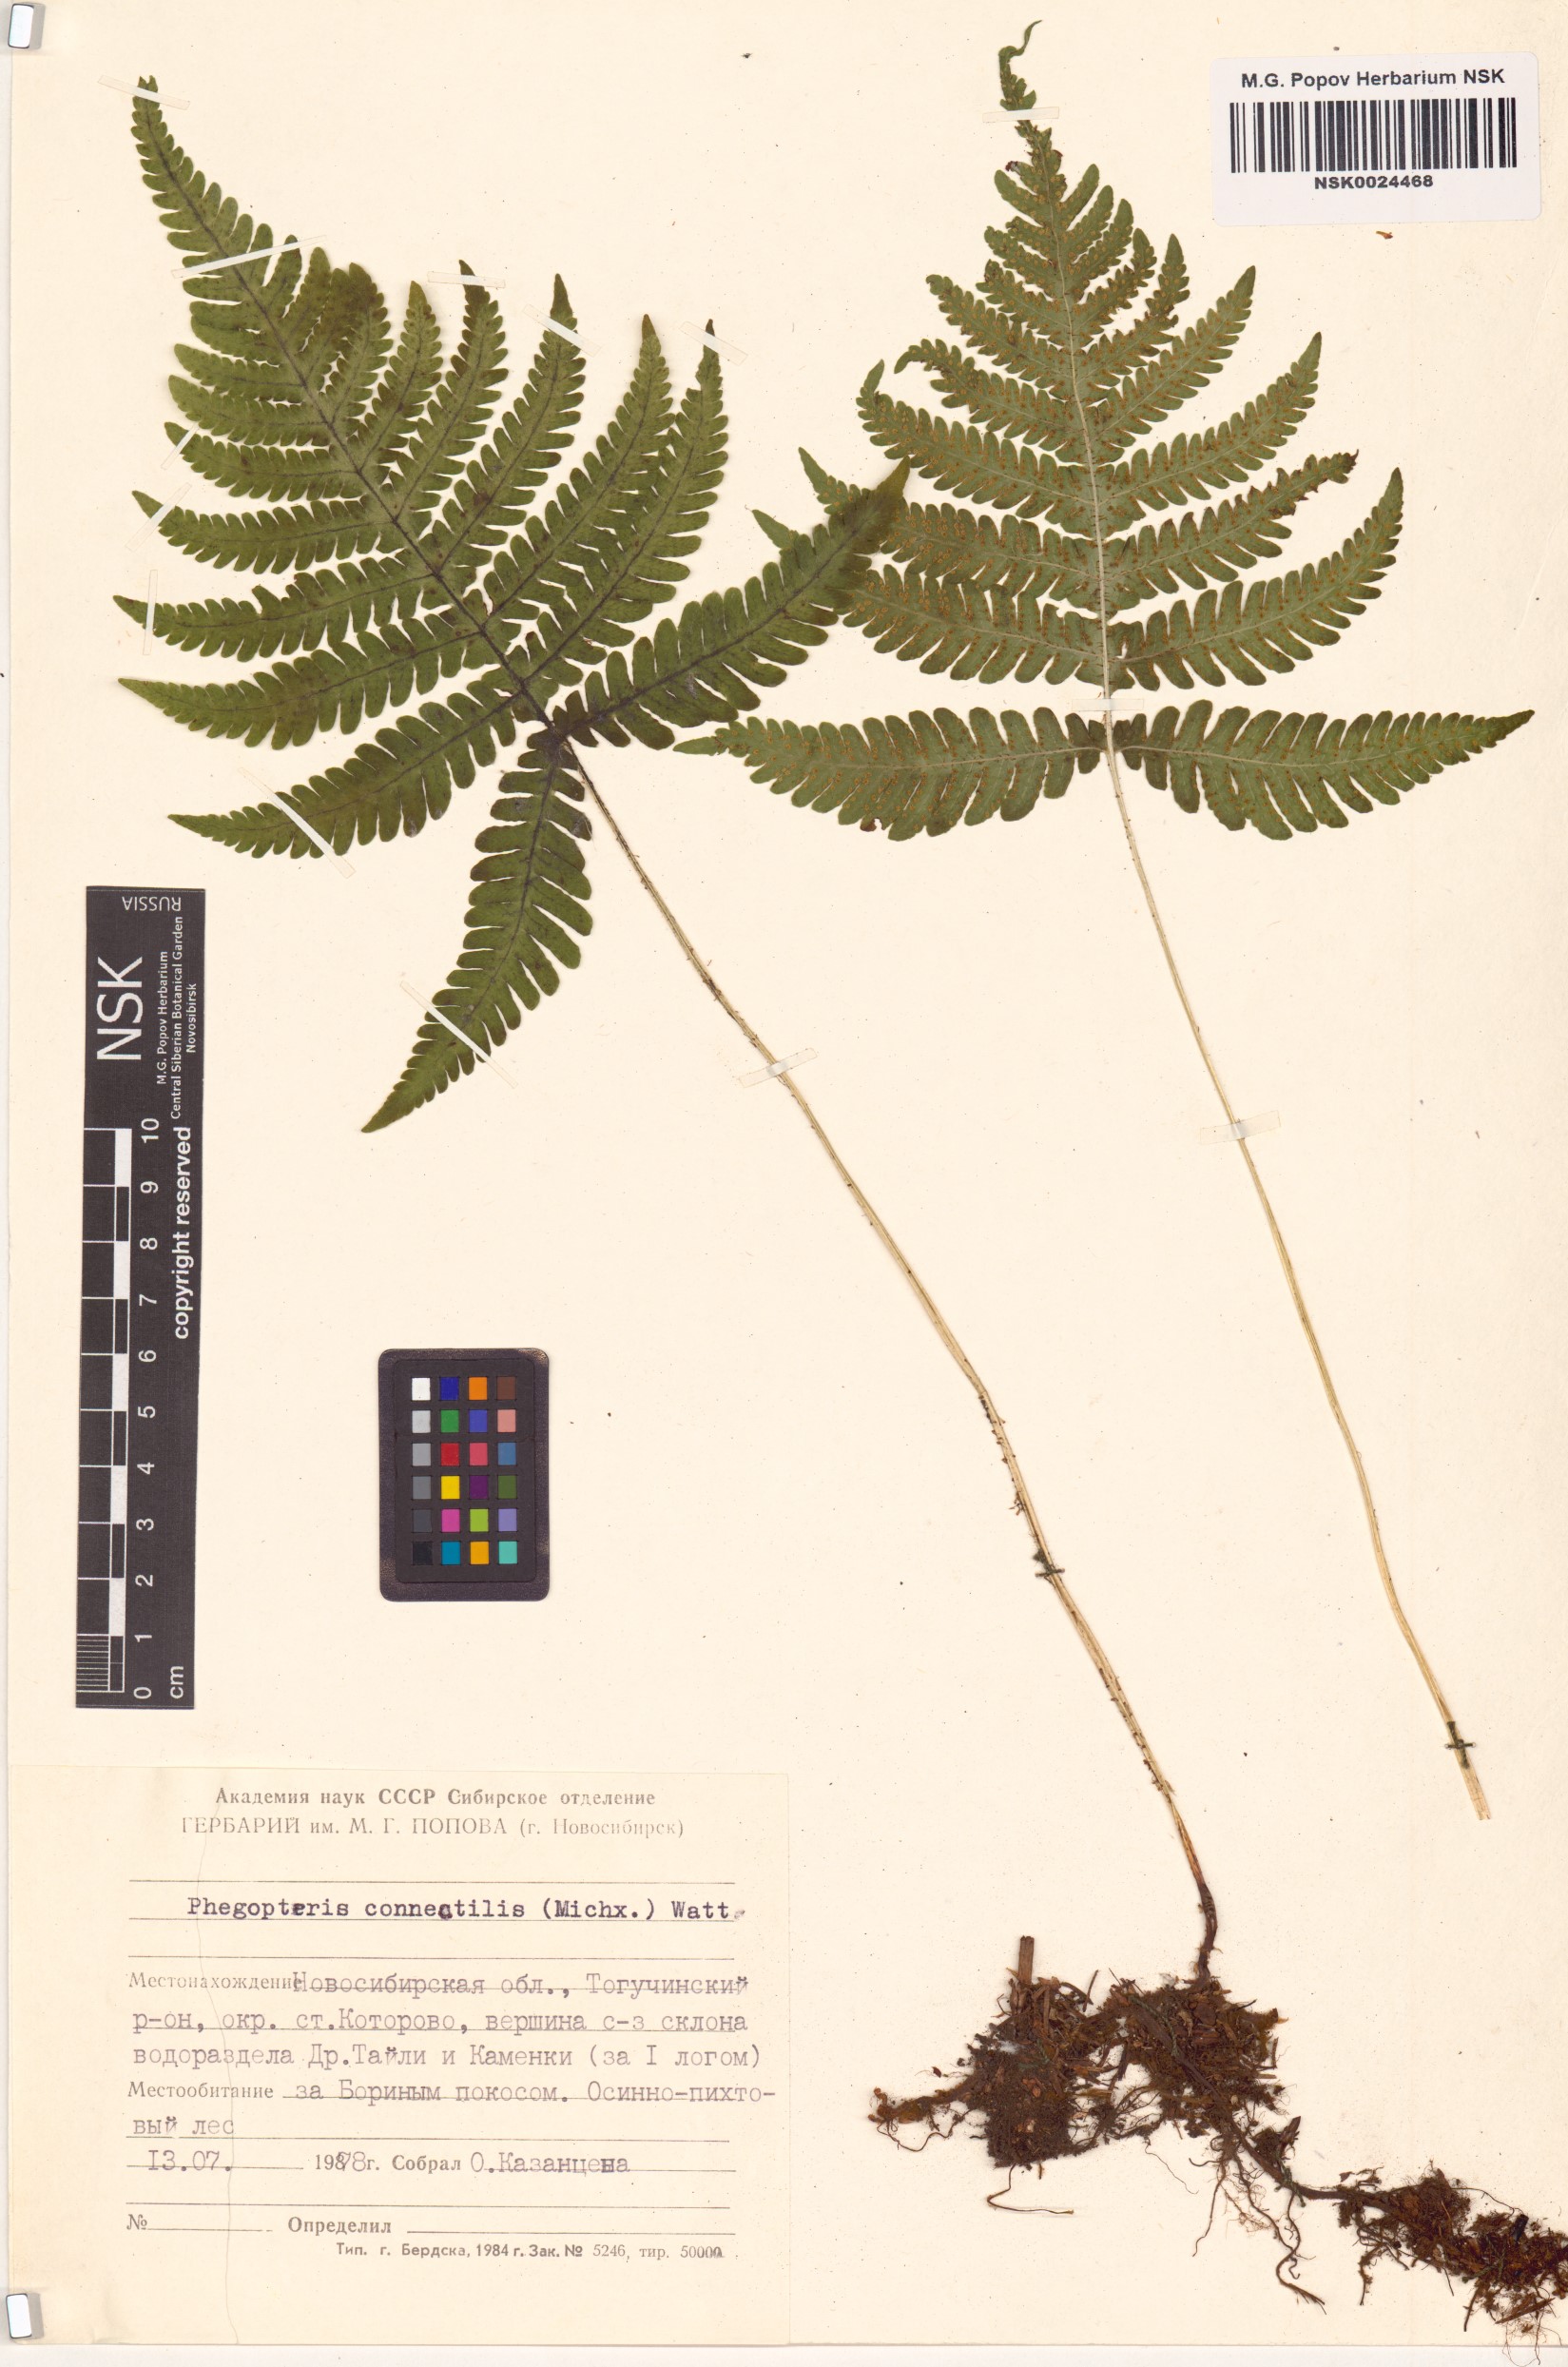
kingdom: Plantae
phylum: Tracheophyta
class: Polypodiopsida
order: Polypodiales
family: Thelypteridaceae
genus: Phegopteris
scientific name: Phegopteris connectilis
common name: Beech fern
